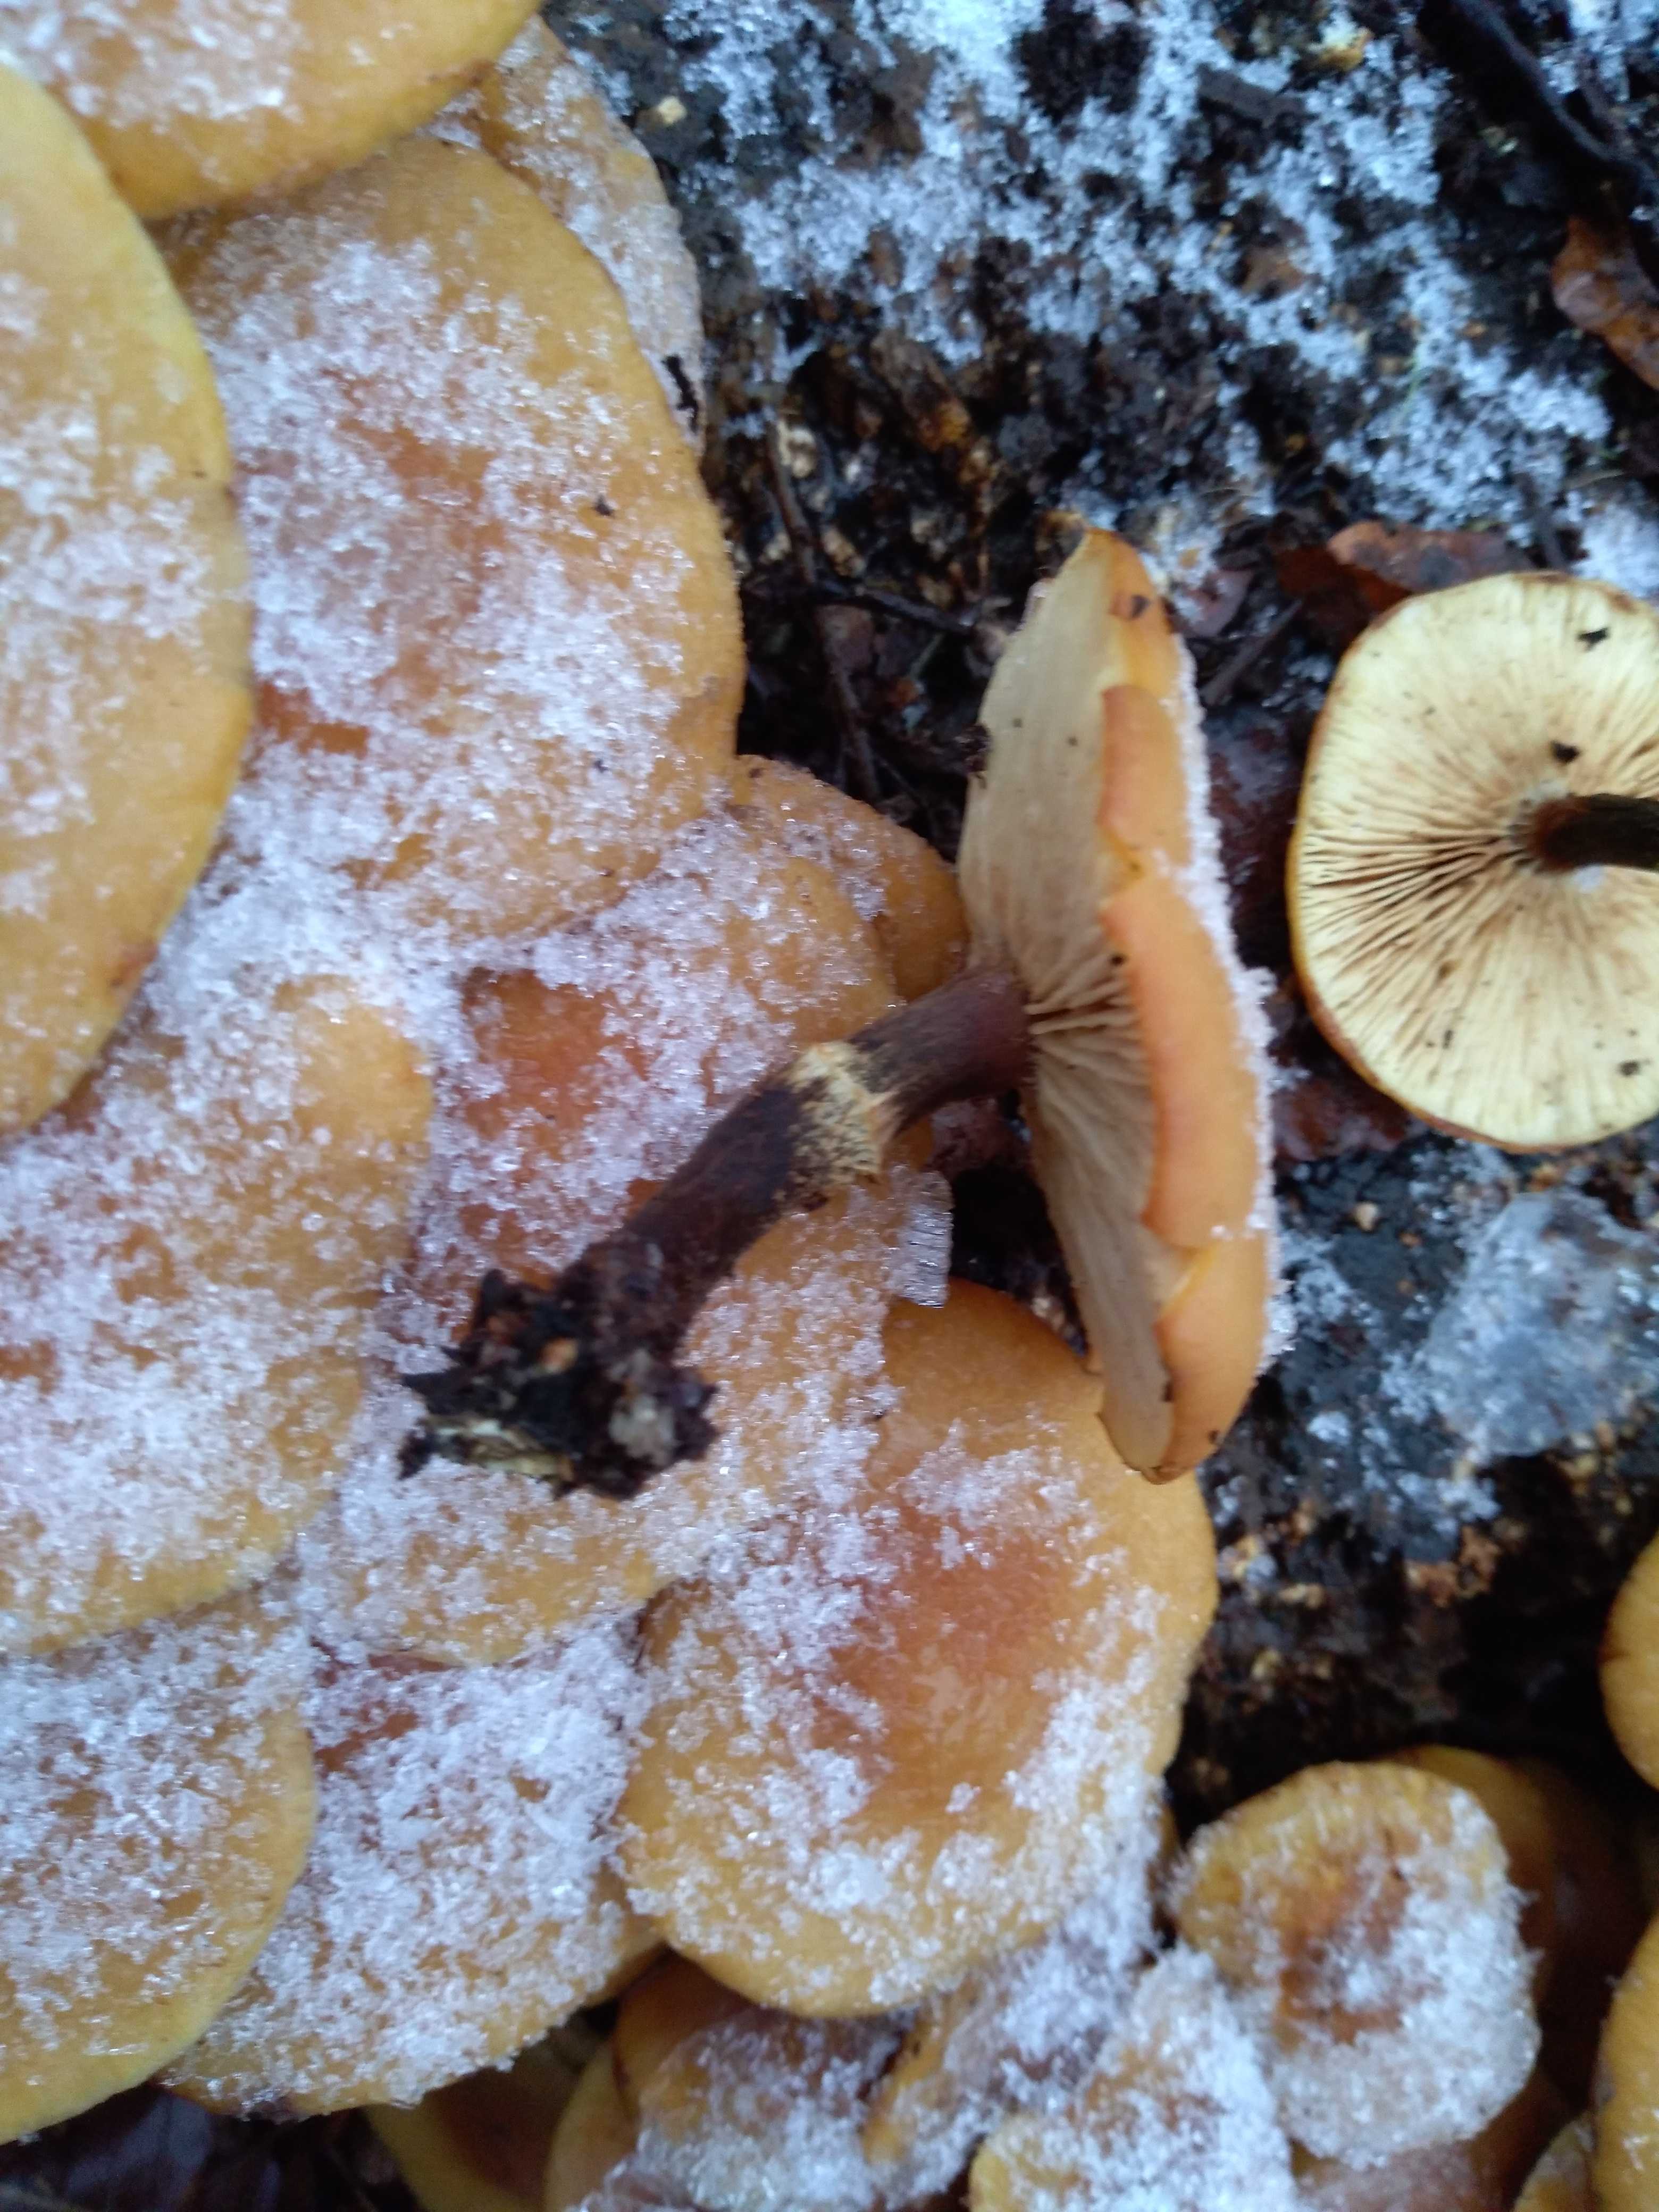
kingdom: Fungi
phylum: Basidiomycota
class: Agaricomycetes
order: Agaricales
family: Strophariaceae
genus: Kuehneromyces
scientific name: Kuehneromyces mutabilis
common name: foranderlig skælhat
